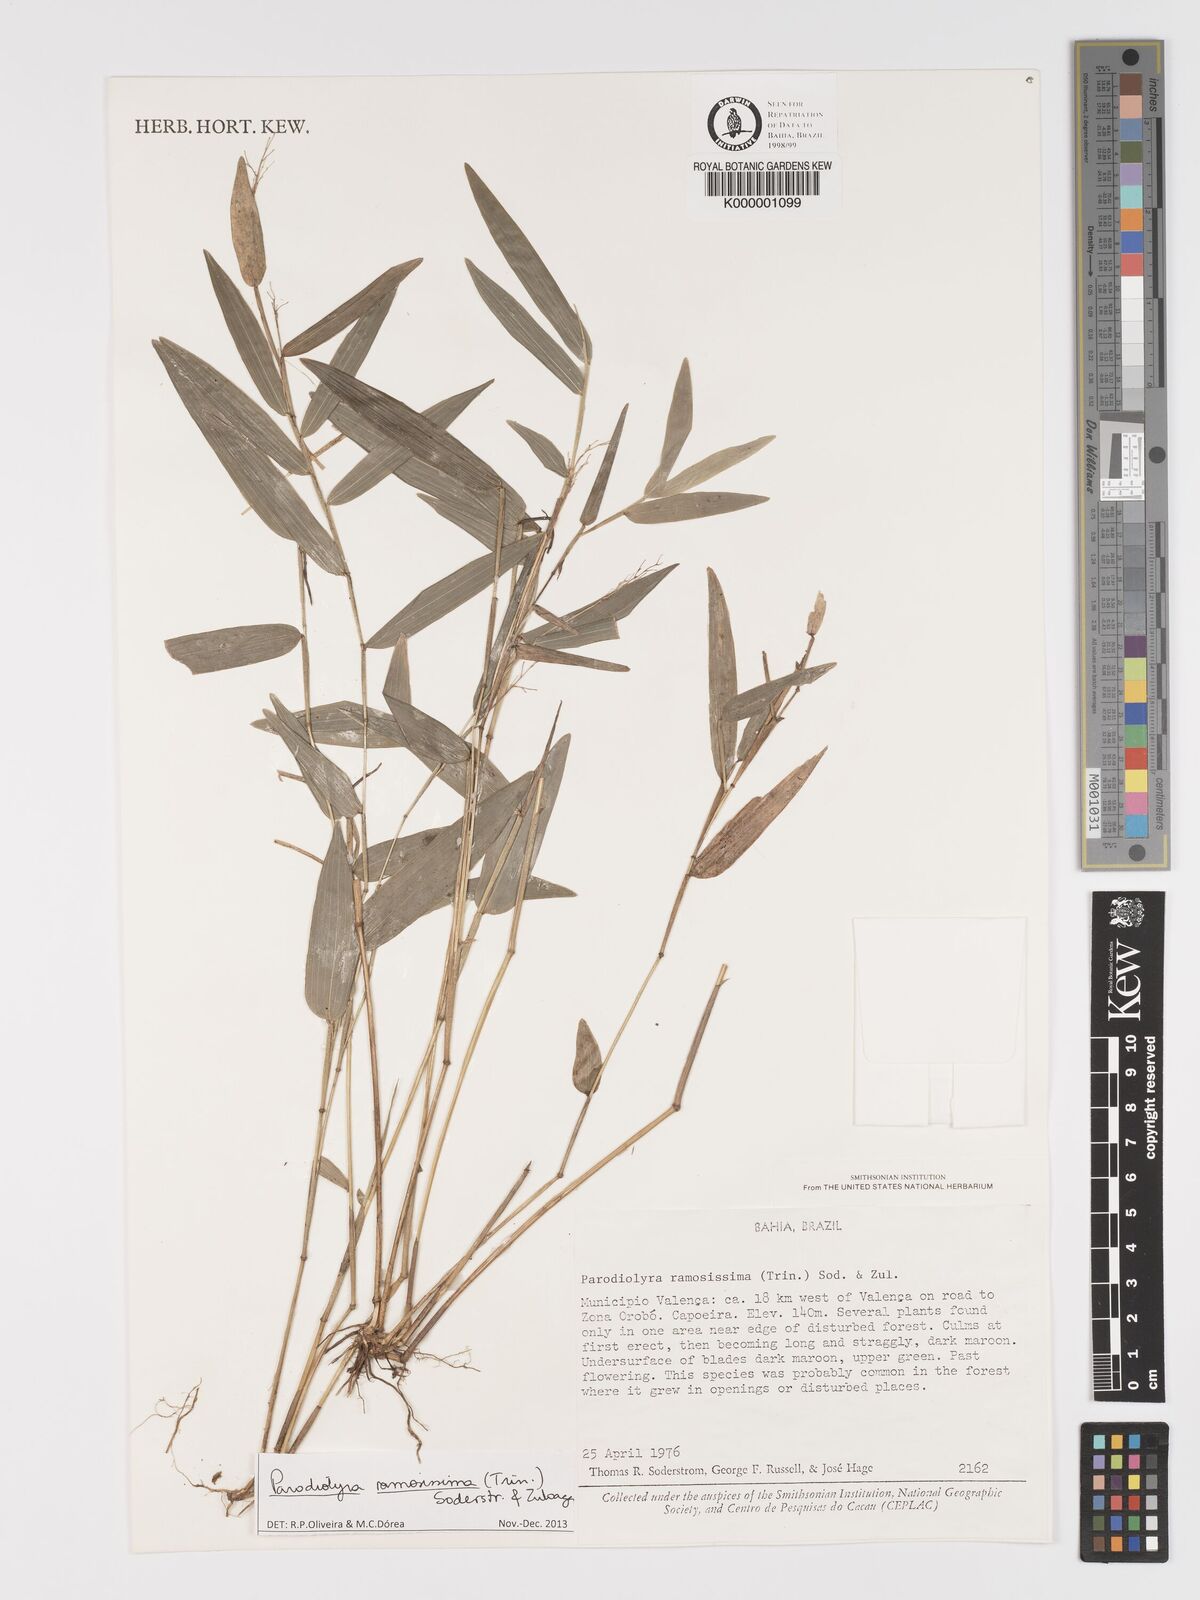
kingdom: Plantae
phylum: Tracheophyta
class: Liliopsida
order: Poales
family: Poaceae
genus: Parodiolyra
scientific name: Parodiolyra ramosissima
